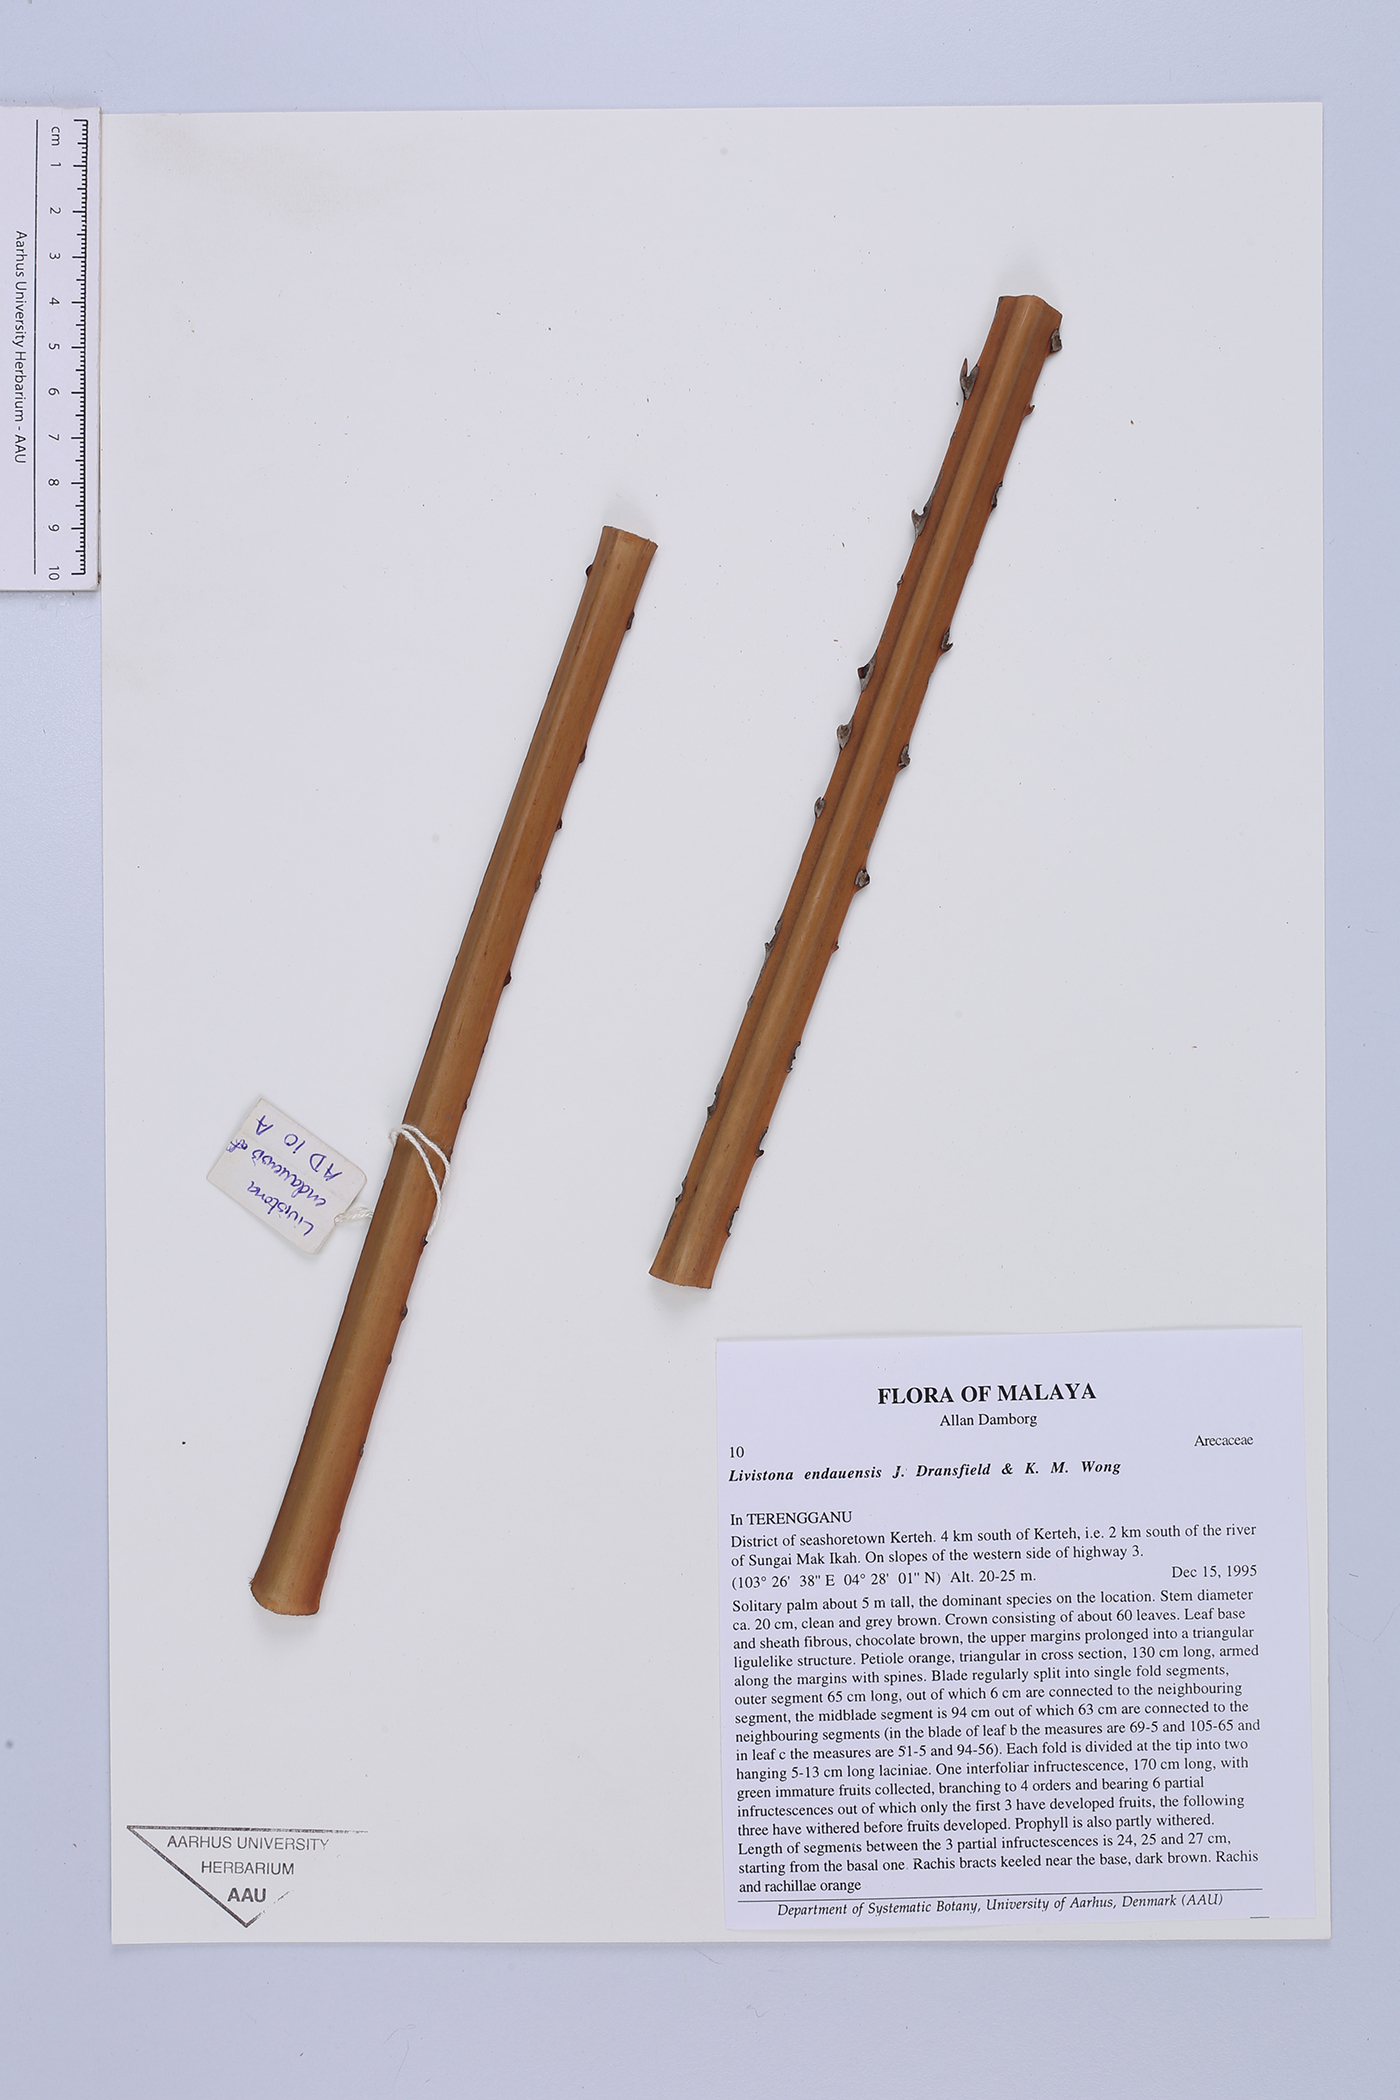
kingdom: Plantae
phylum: Tracheophyta
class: Liliopsida
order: Arecales
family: Arecaceae
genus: Livistona
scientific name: Livistona endauensis
